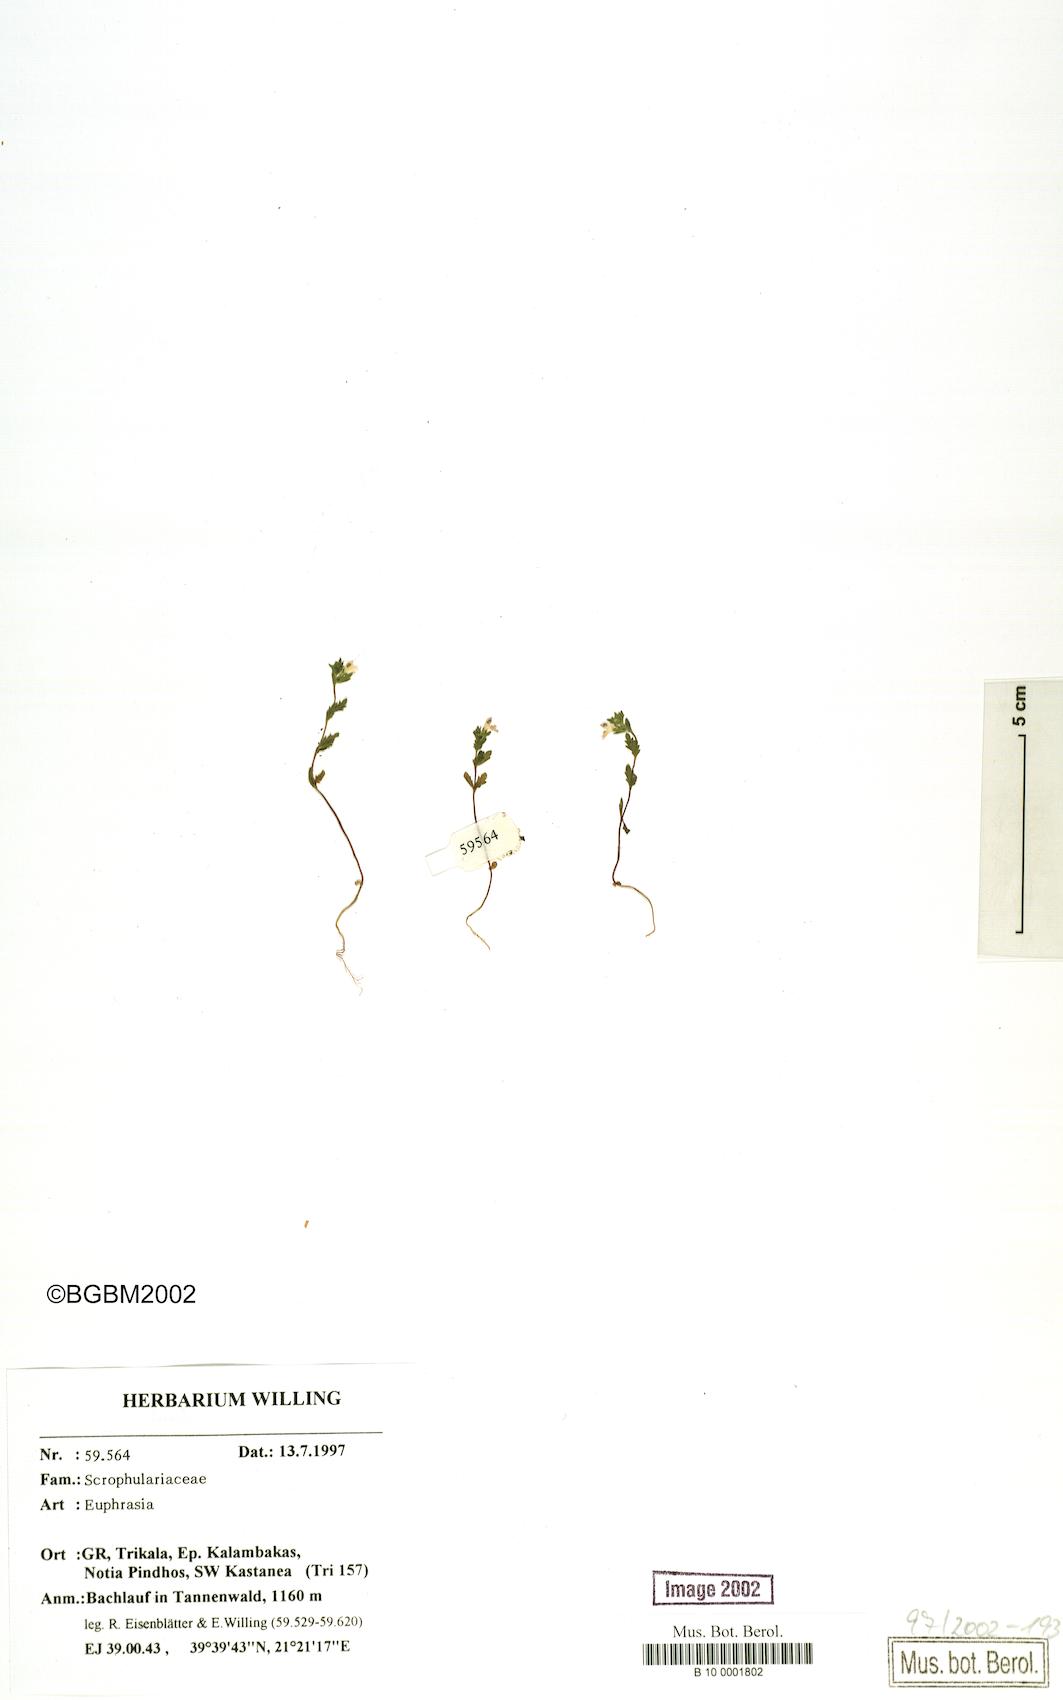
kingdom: Plantae
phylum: Tracheophyta
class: Magnoliopsida
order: Lamiales
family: Orobanchaceae
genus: Euphrasia
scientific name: Euphrasia
